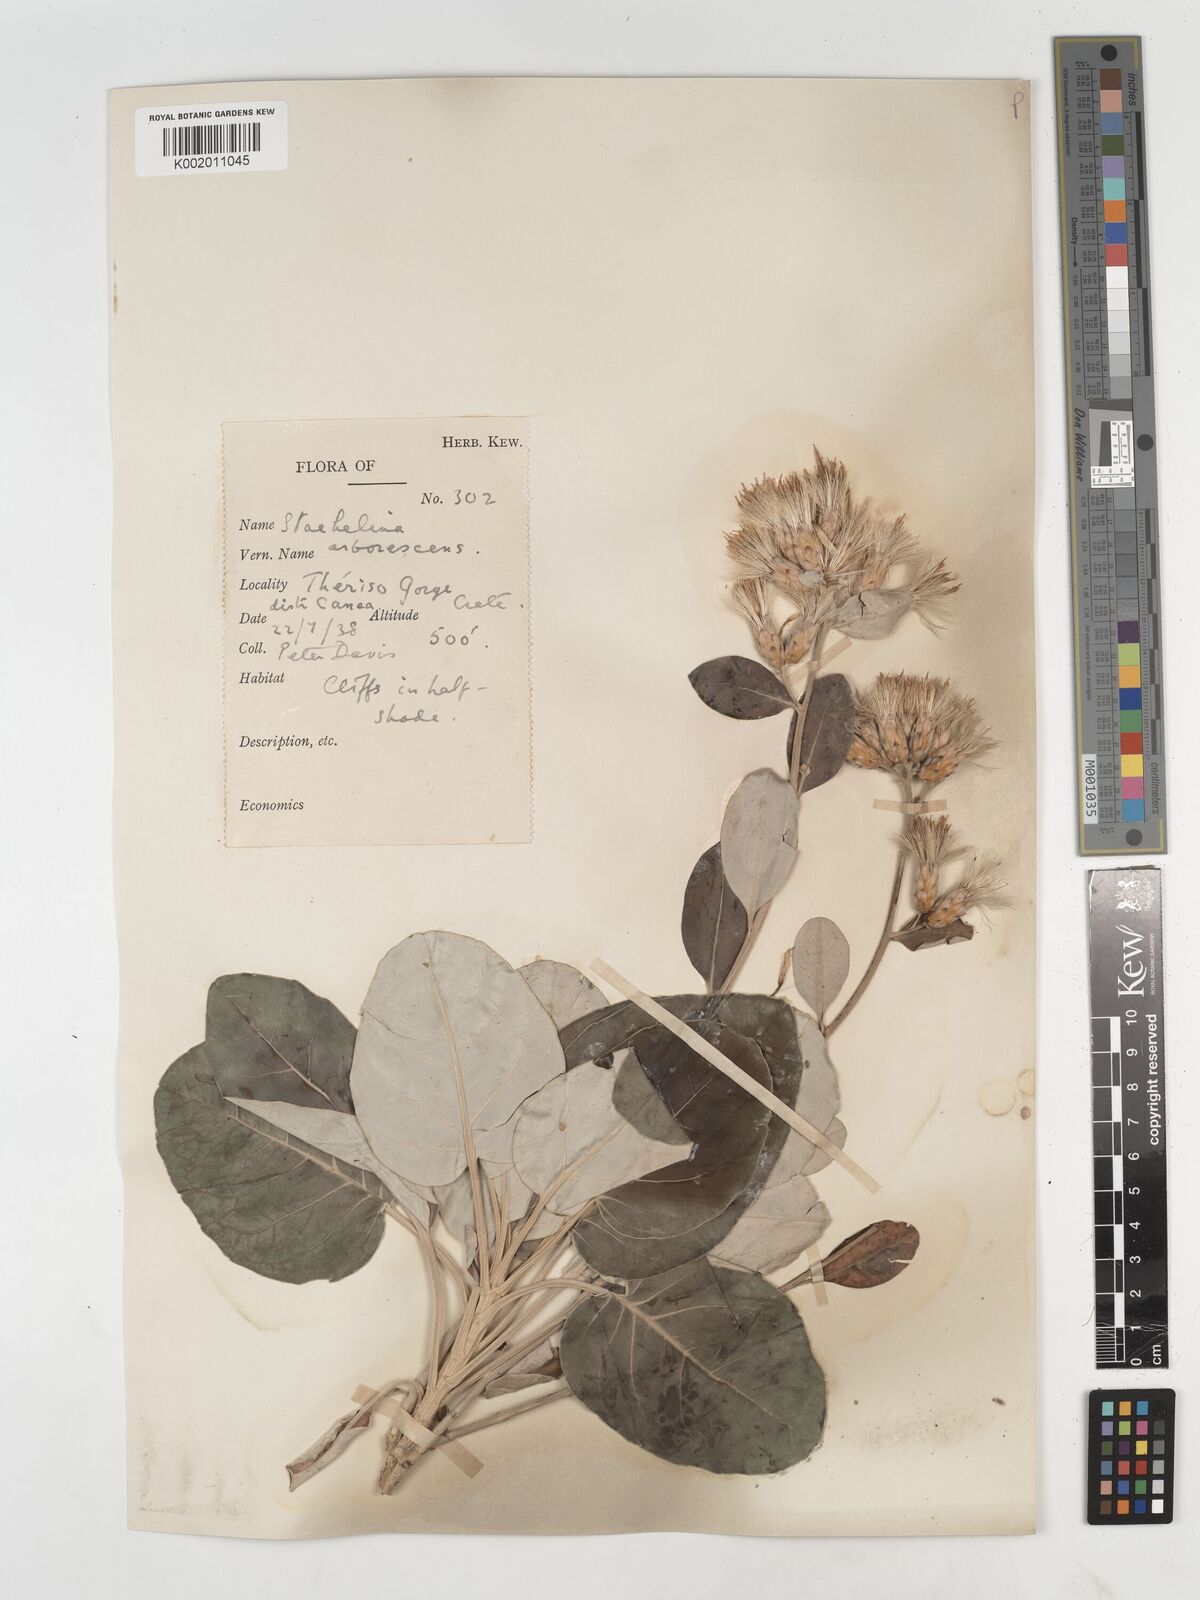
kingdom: Plantae
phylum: Tracheophyta
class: Magnoliopsida
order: Asterales
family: Asteraceae
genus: Staehelina
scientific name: Staehelina petiolata
